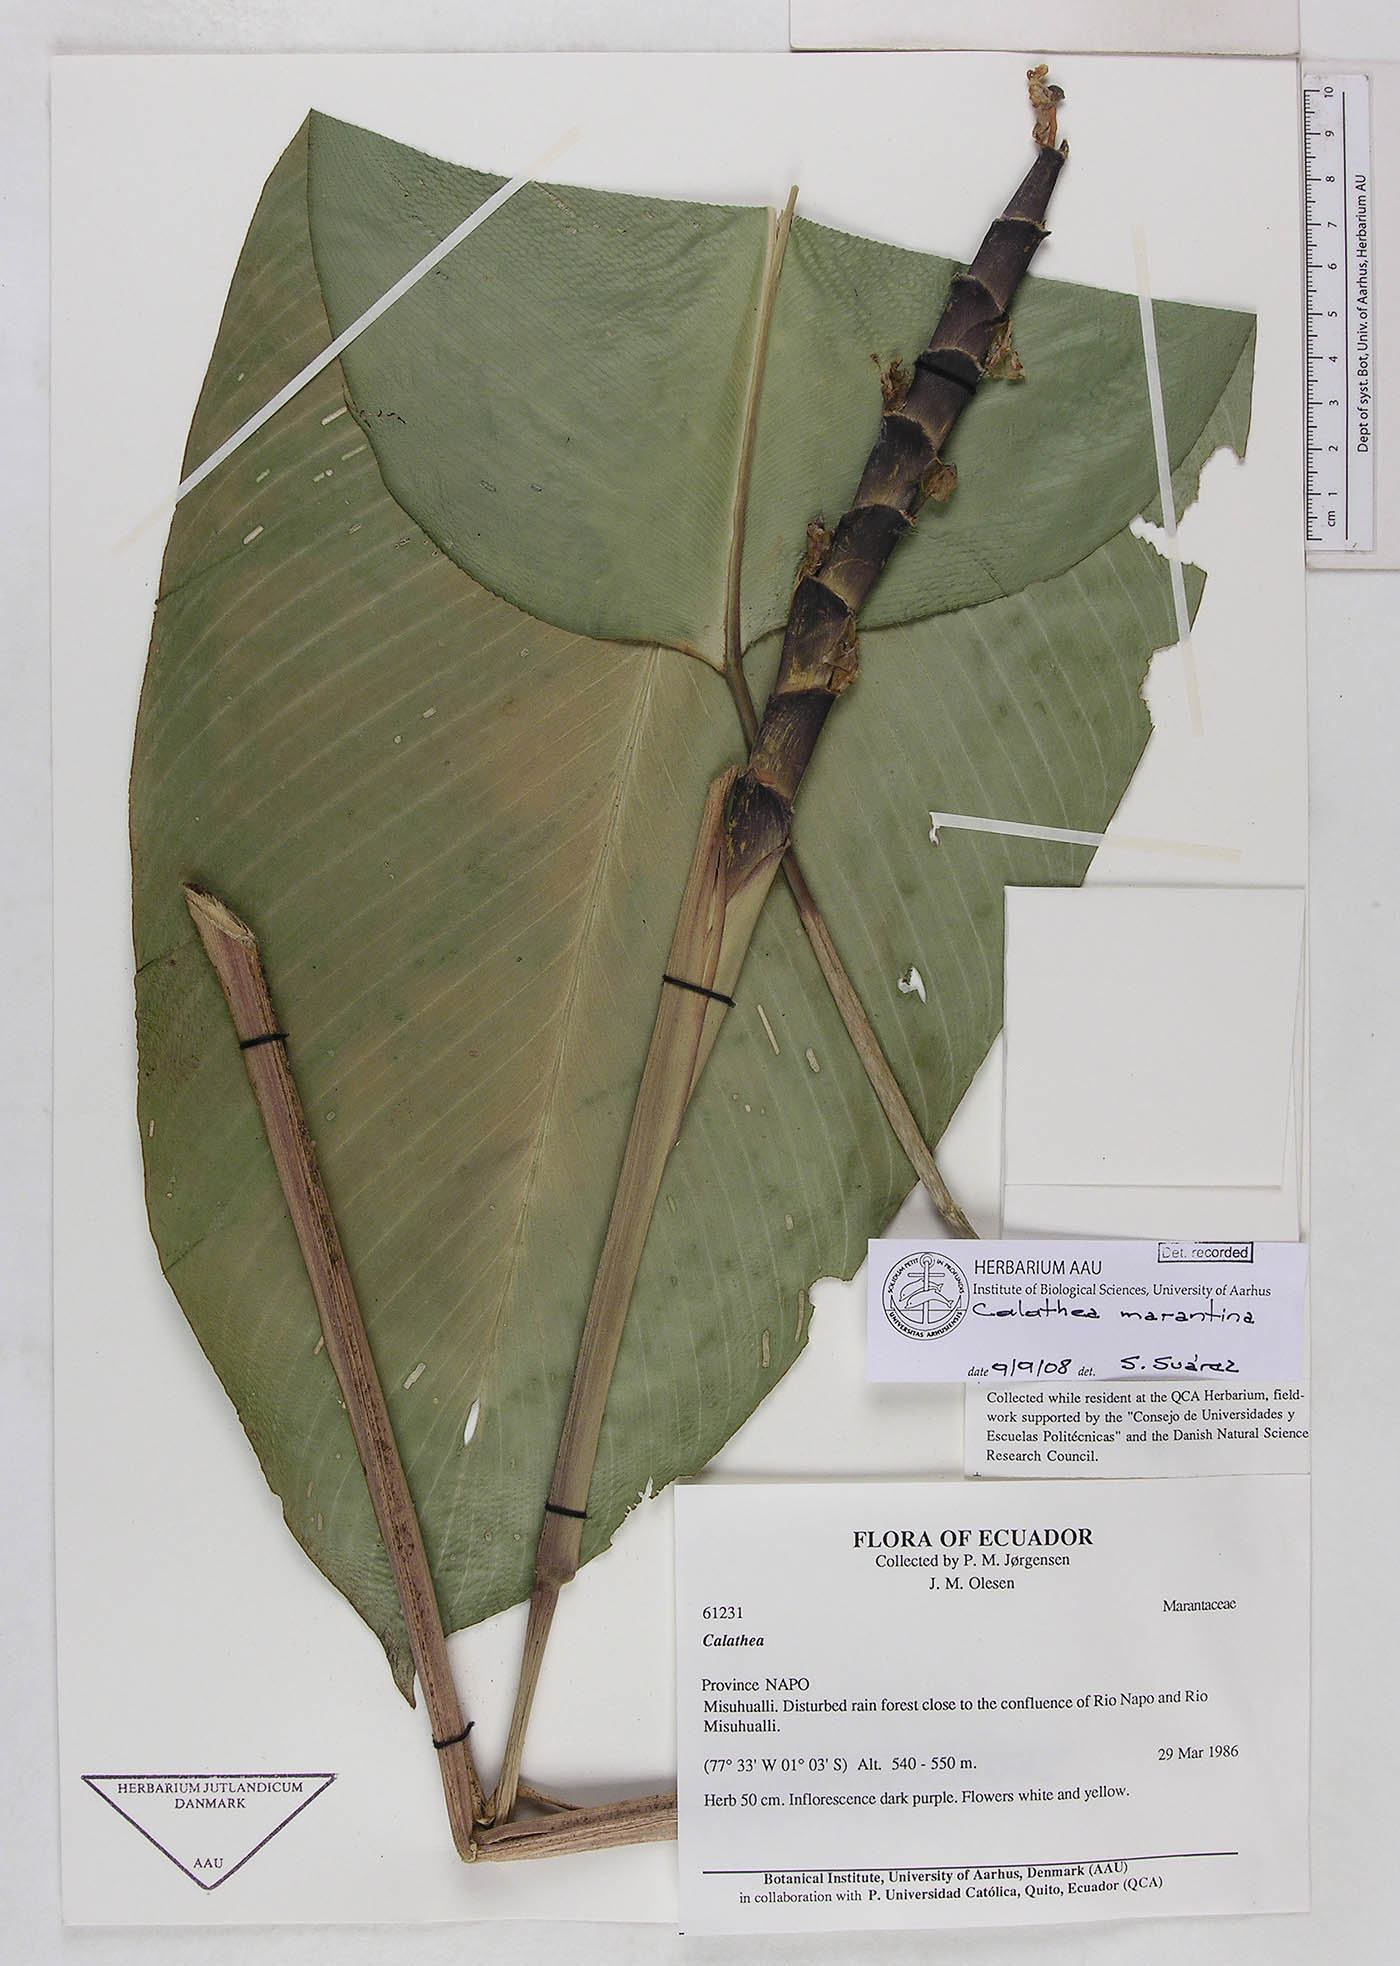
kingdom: Plantae
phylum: Tracheophyta
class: Liliopsida
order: Zingiberales
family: Marantaceae
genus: Calathea
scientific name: Calathea marantina
